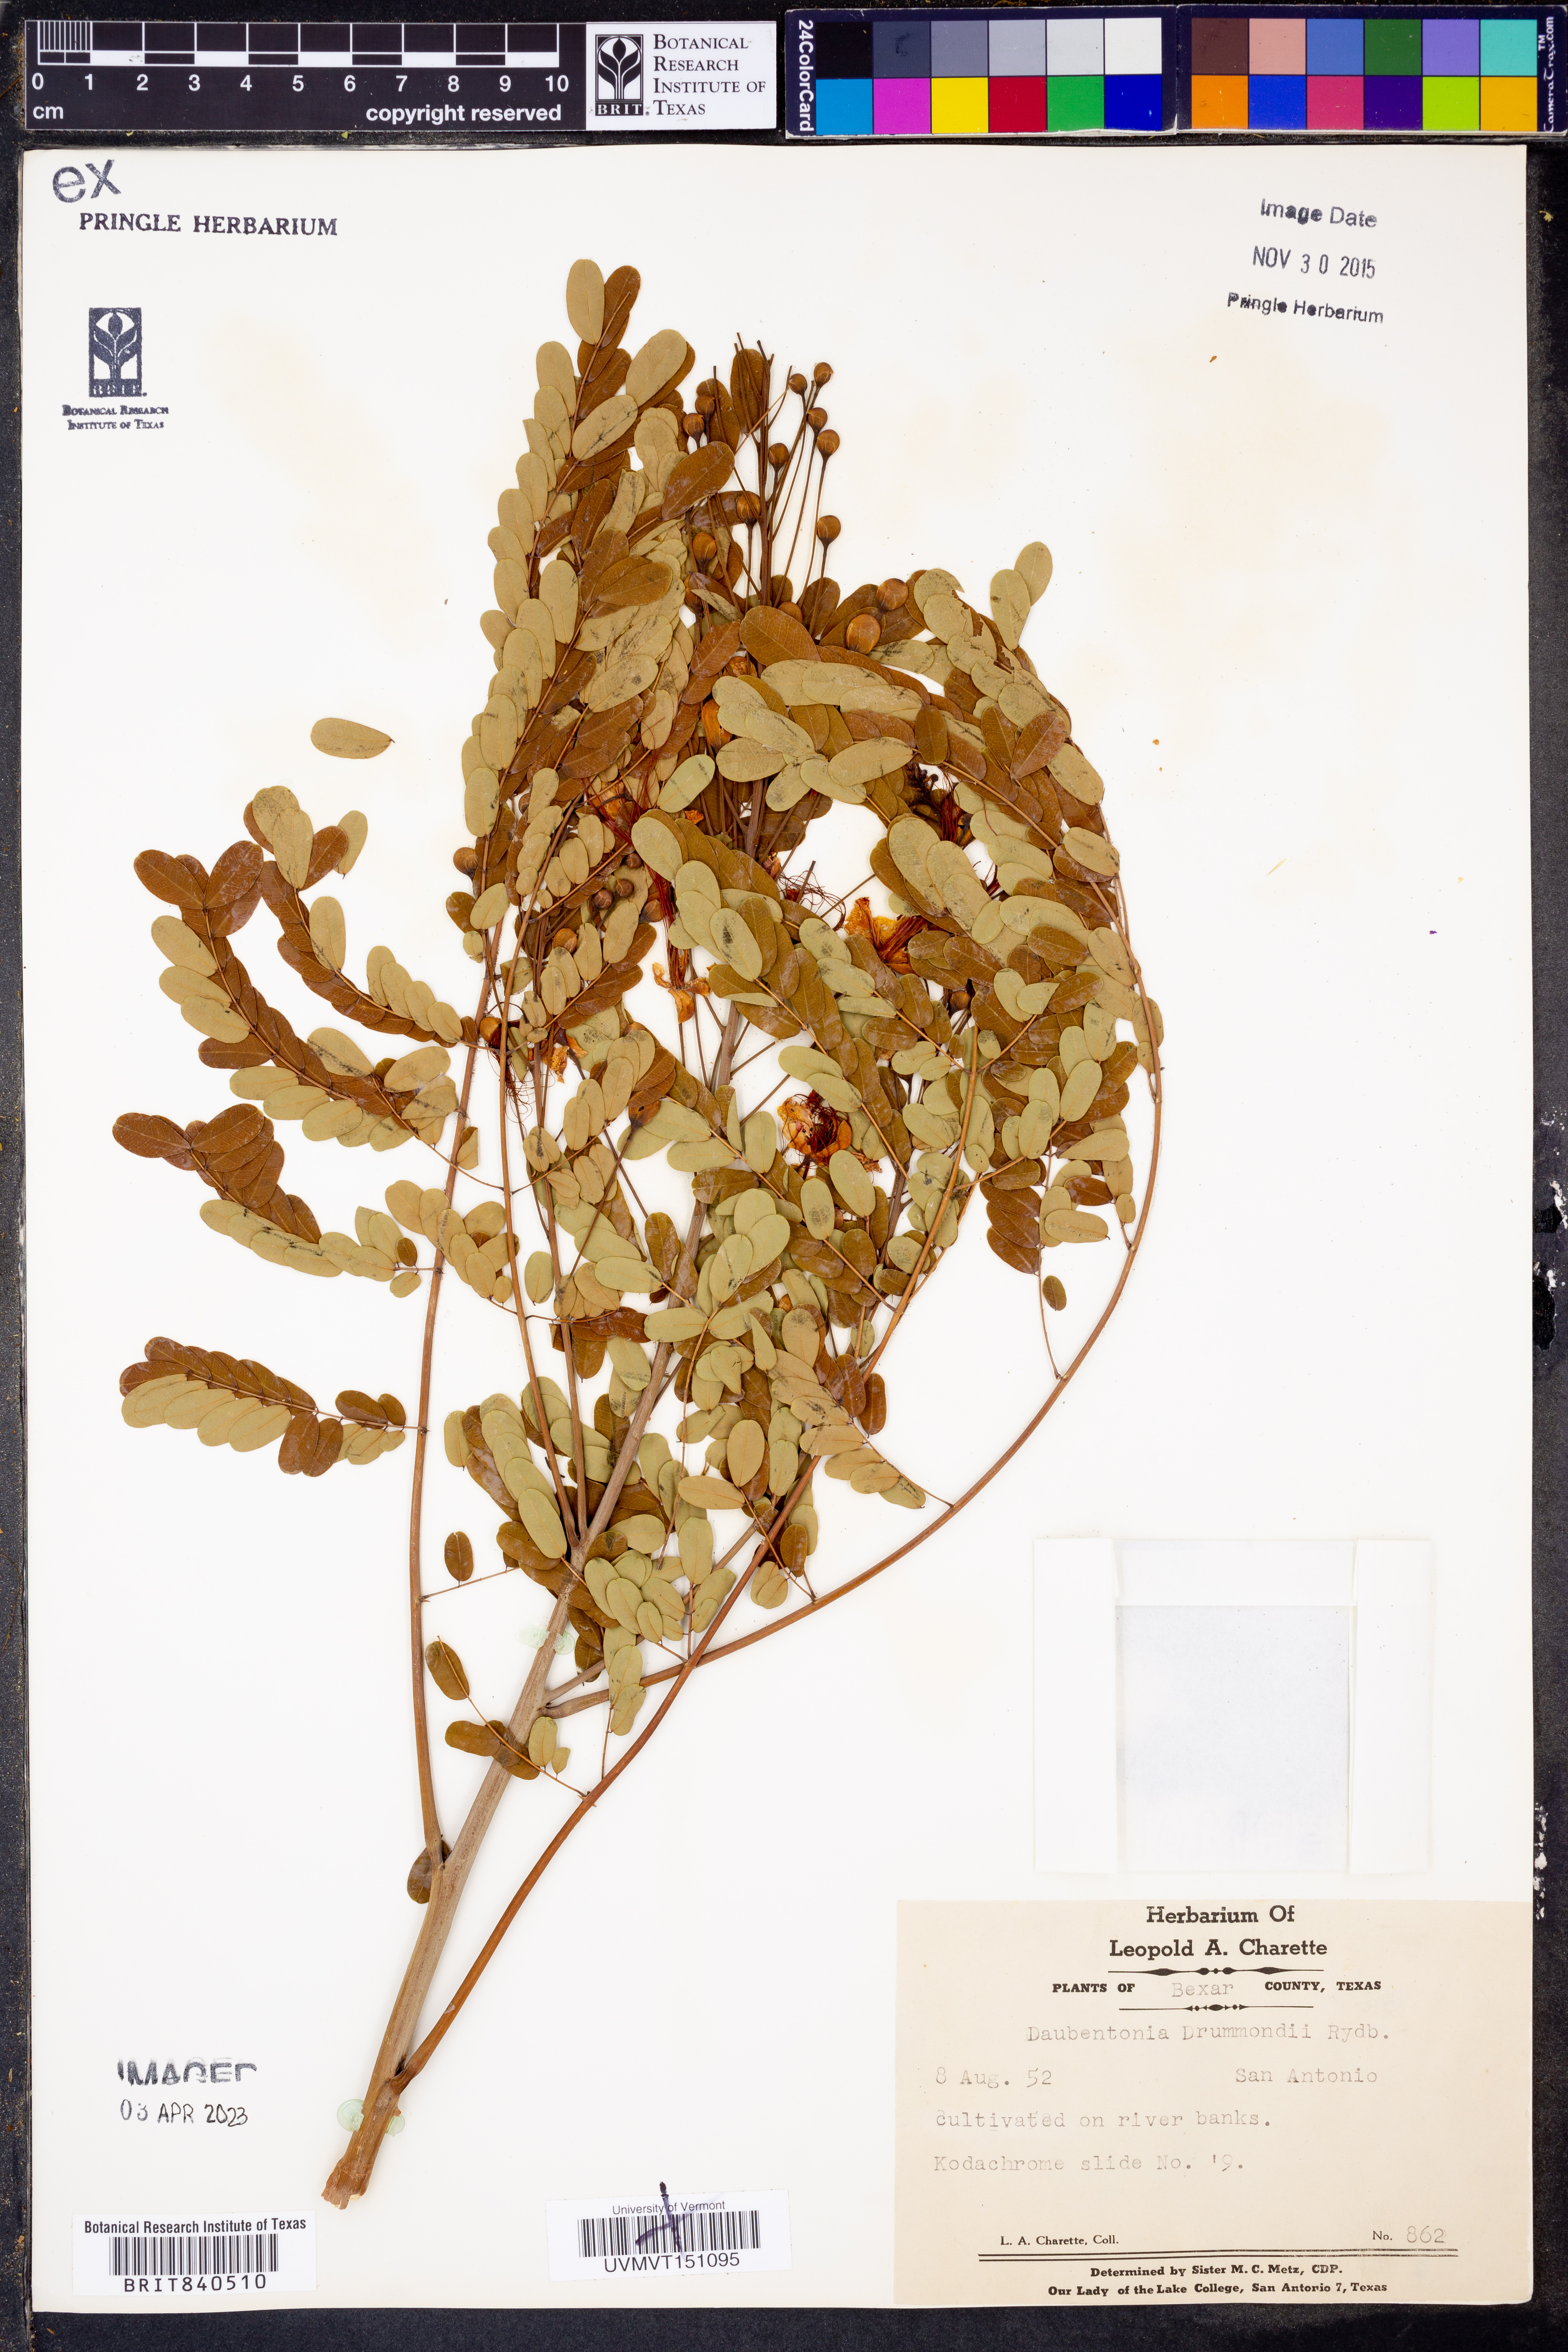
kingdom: Plantae
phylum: Tracheophyta
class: Magnoliopsida
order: Fabales
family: Fabaceae
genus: Sesbania
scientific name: Sesbania drummondii
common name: Poison-bean
